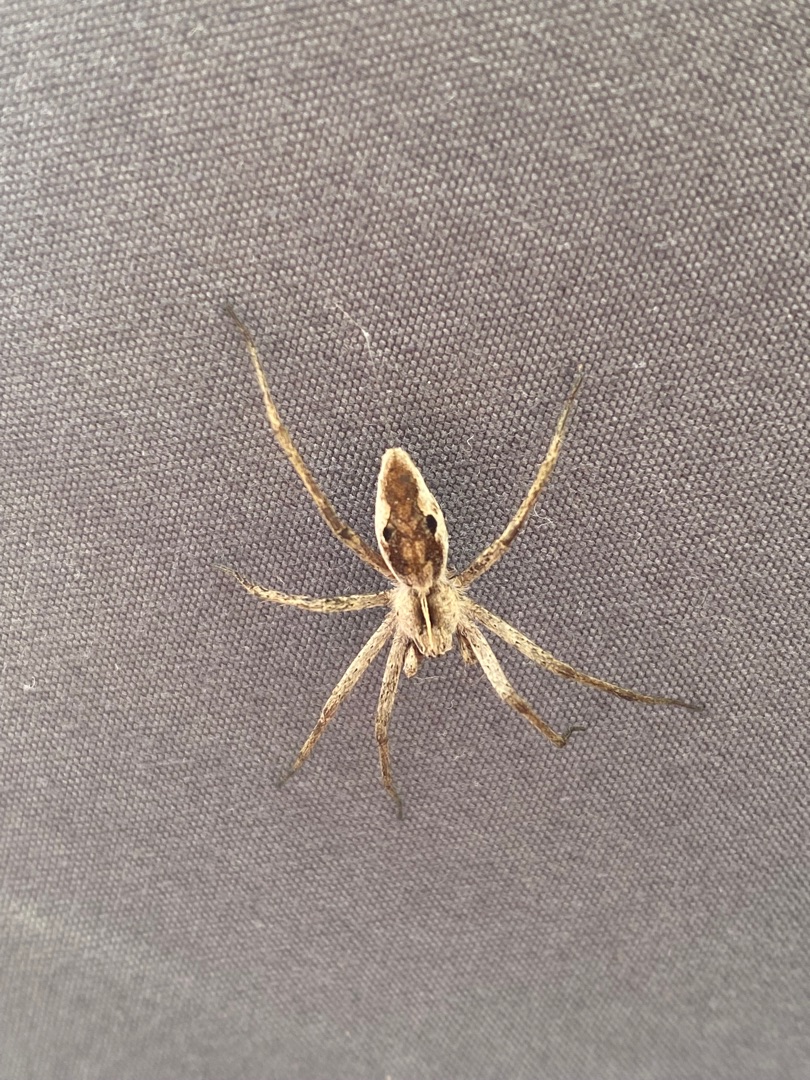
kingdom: Animalia
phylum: Arthropoda
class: Arachnida
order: Araneae
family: Pisauridae
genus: Pisaura
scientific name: Pisaura mirabilis
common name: Almindelig rovedderkop
